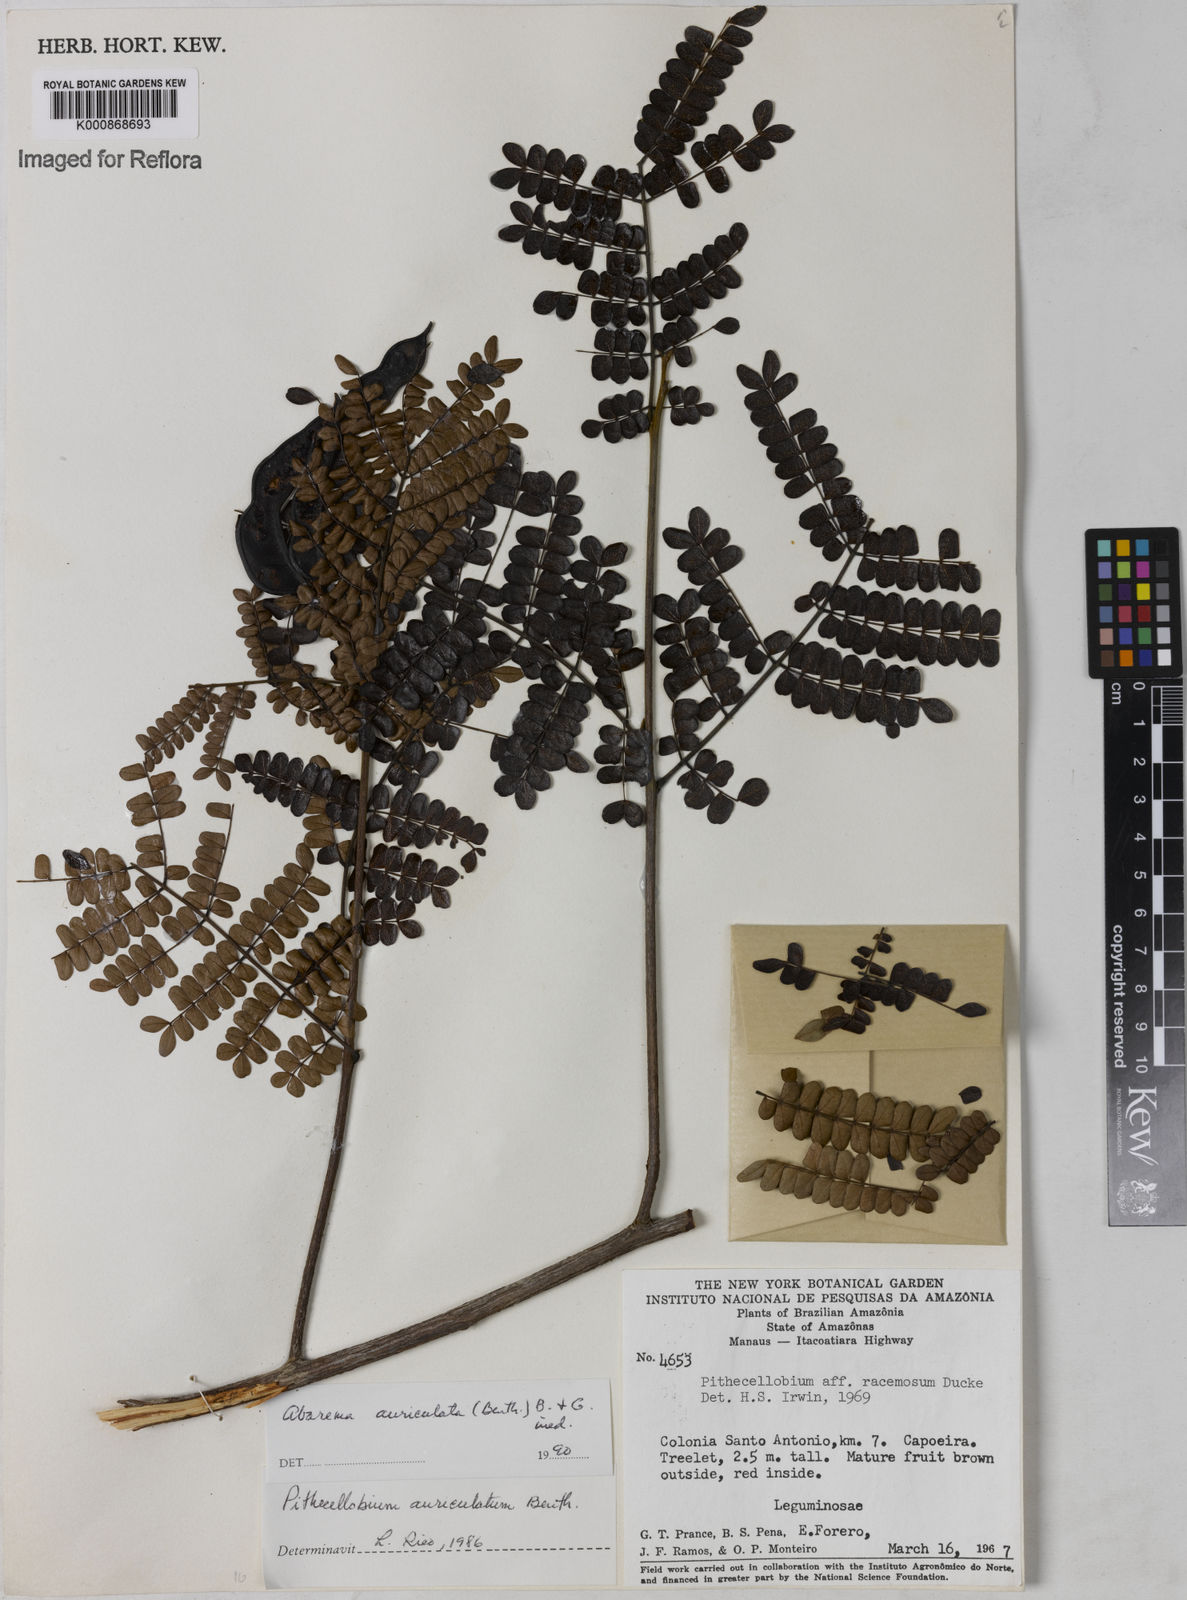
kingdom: Plantae
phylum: Tracheophyta
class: Magnoliopsida
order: Fabales
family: Fabaceae
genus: Jupunba
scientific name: Jupunba auriculata
